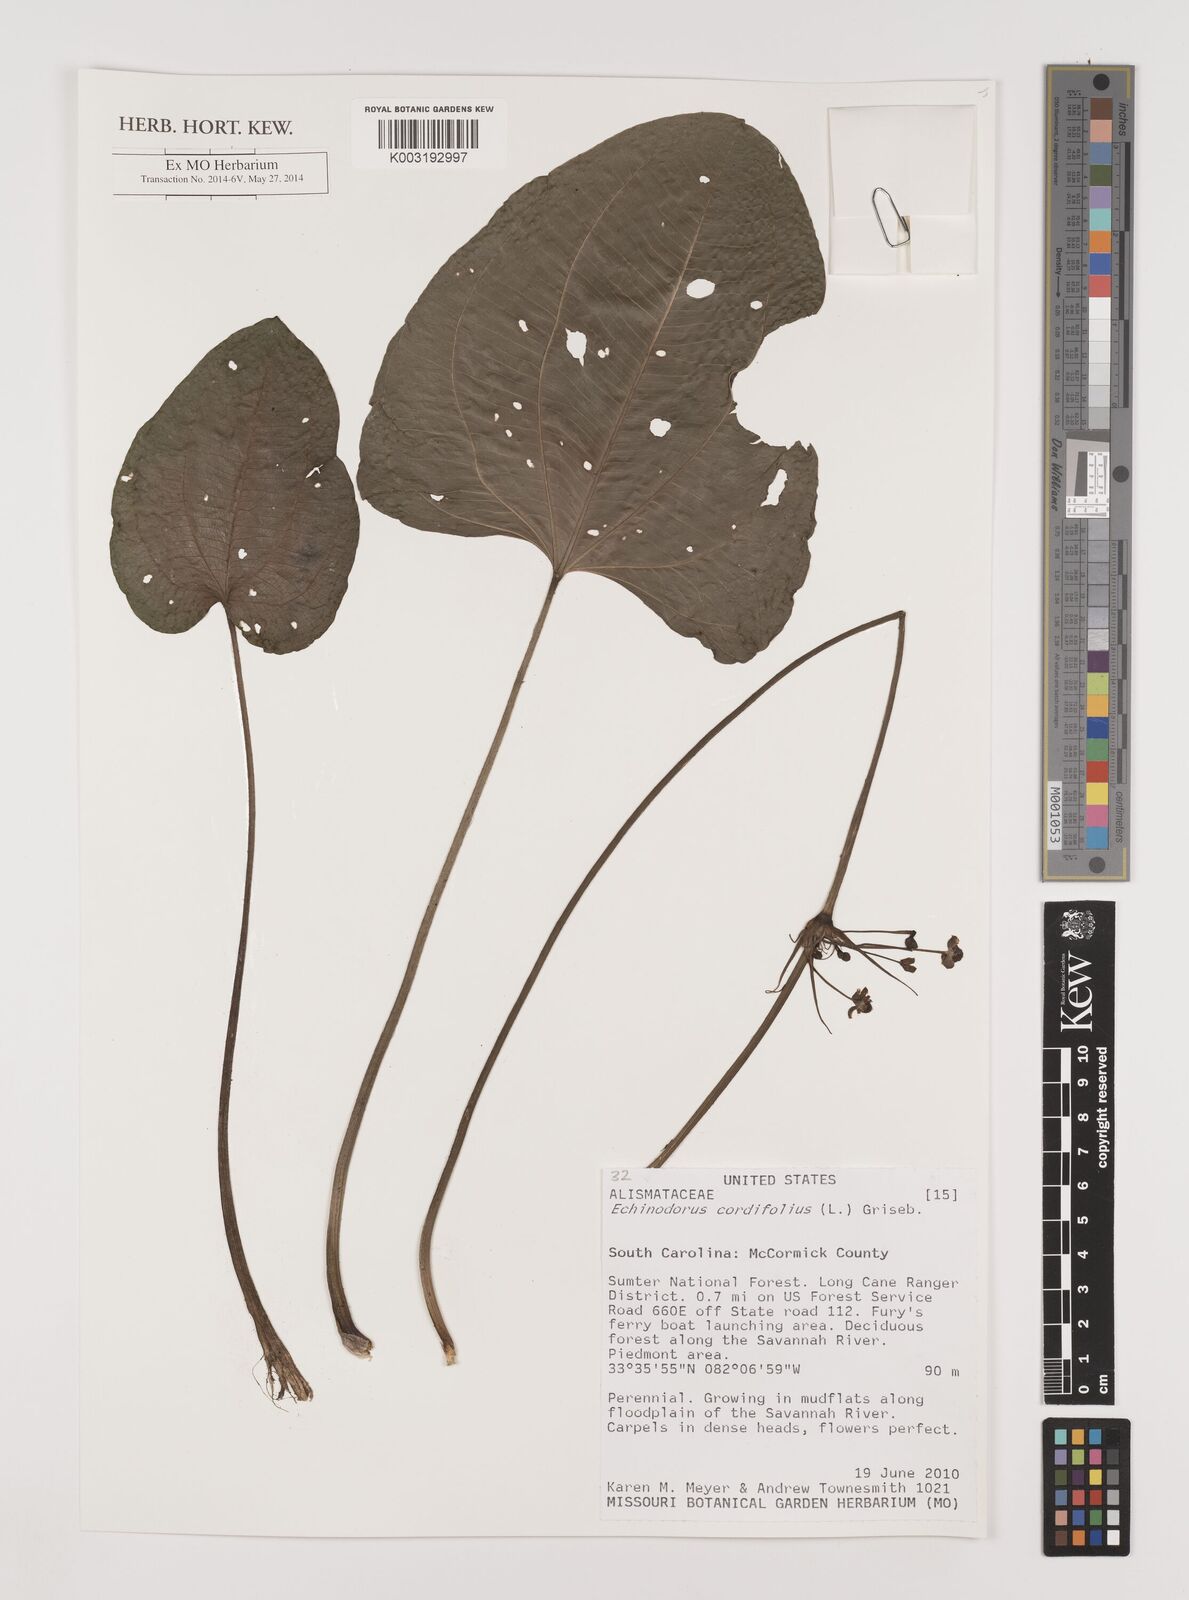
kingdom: Plantae
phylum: Tracheophyta
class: Liliopsida
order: Alismatales
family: Alismataceae
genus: Aquarius
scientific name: Aquarius cordifolius
